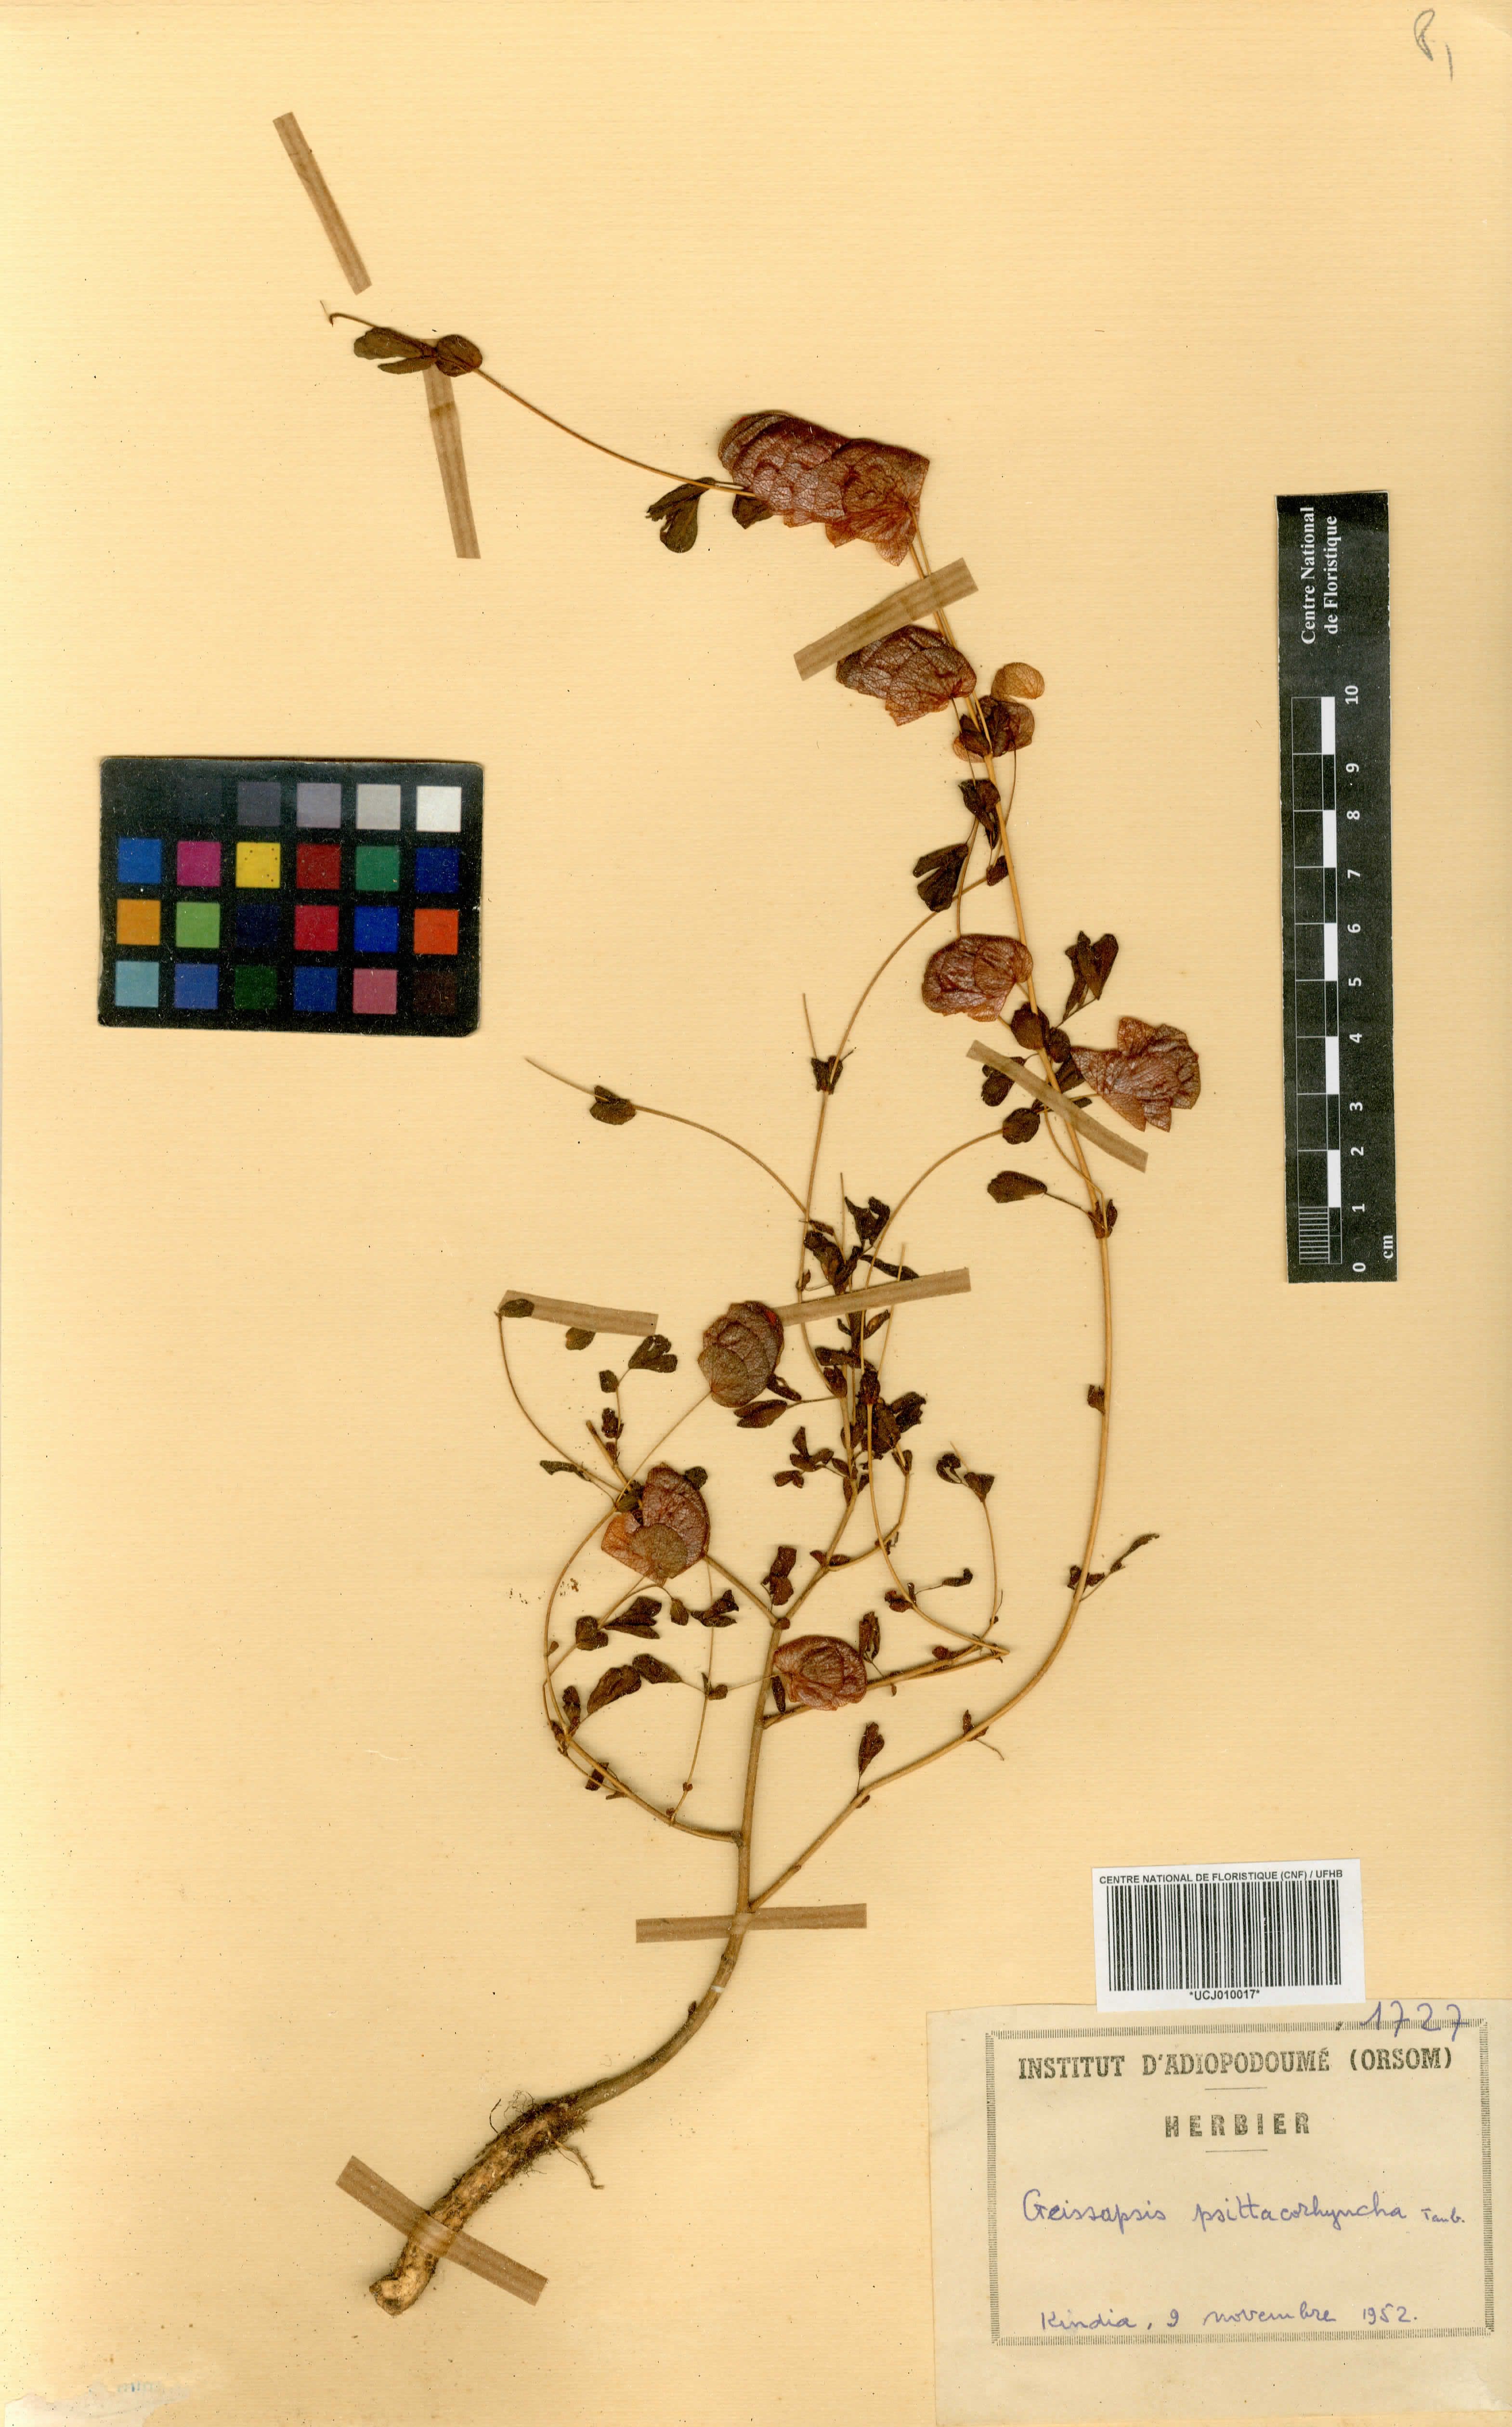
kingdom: Plantae
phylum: Tracheophyta
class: Magnoliopsida
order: Fabales
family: Fabaceae
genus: Bryaspis
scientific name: Bryaspis psittacorhyncha
